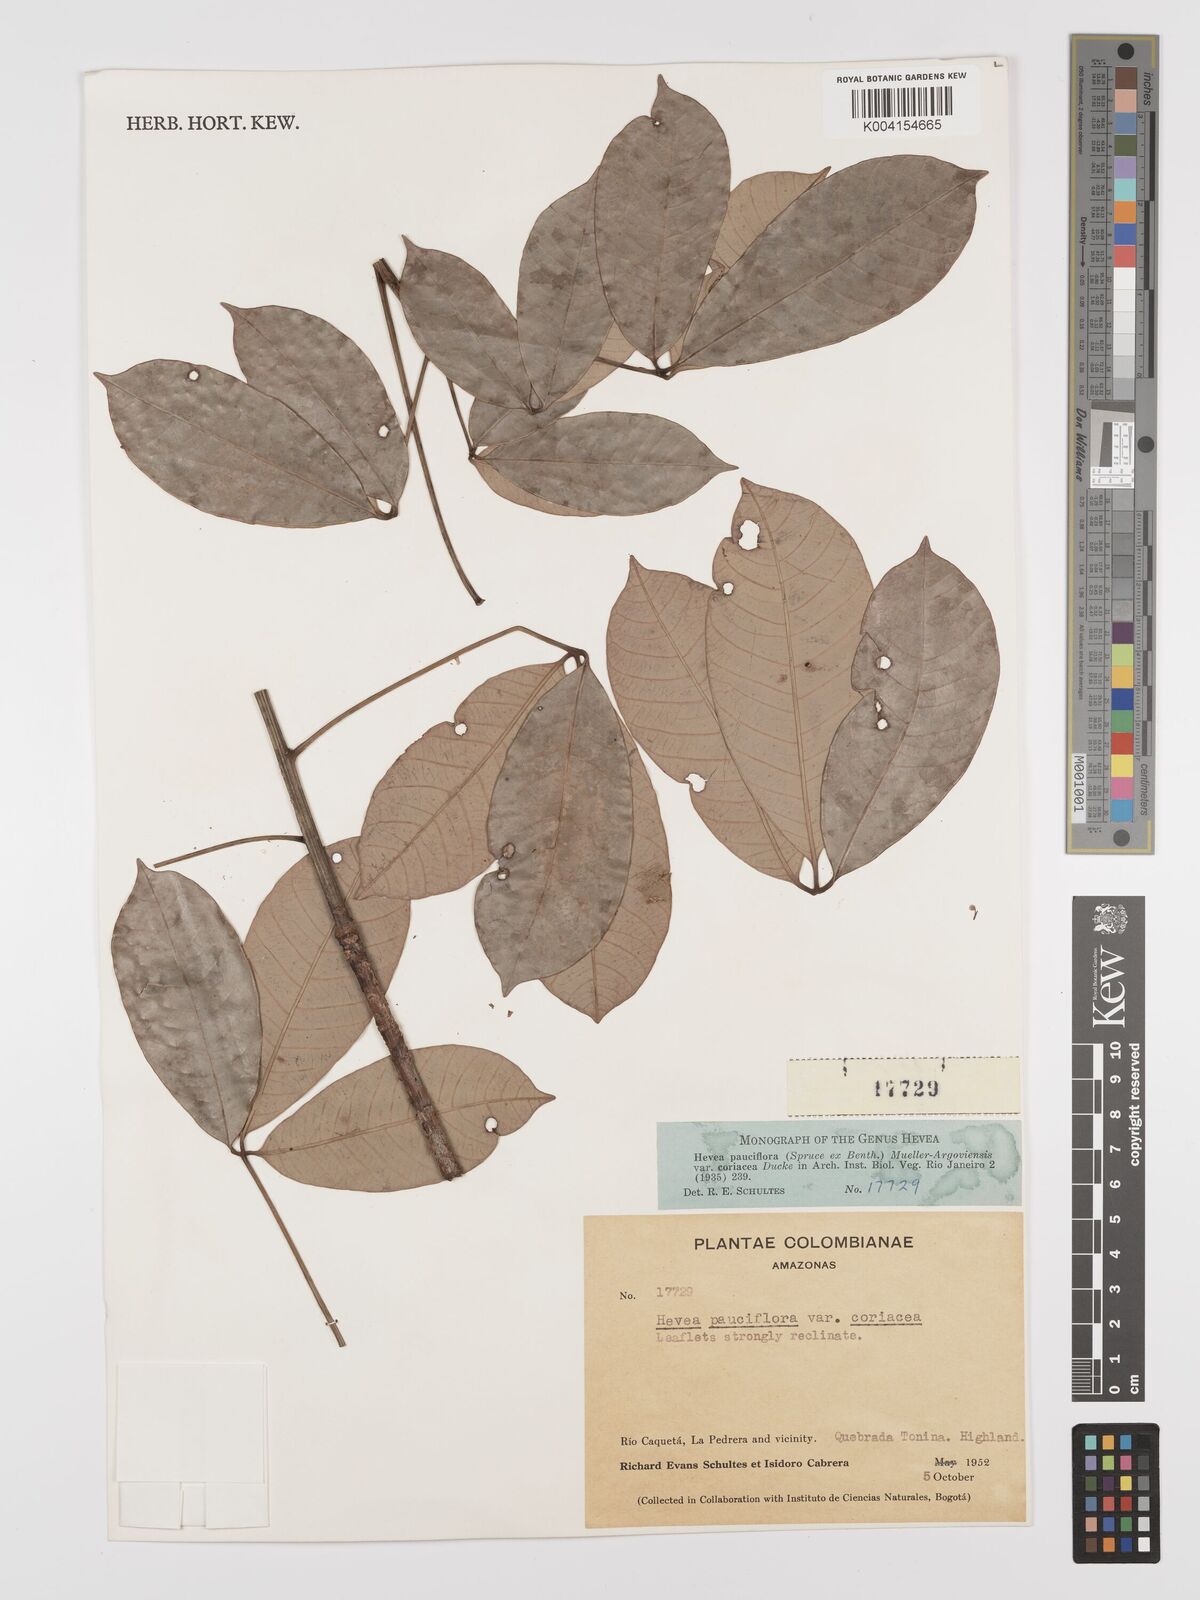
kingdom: Plantae
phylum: Tracheophyta
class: Magnoliopsida
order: Malpighiales
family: Euphorbiaceae
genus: Hevea
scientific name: Hevea pauciflora
